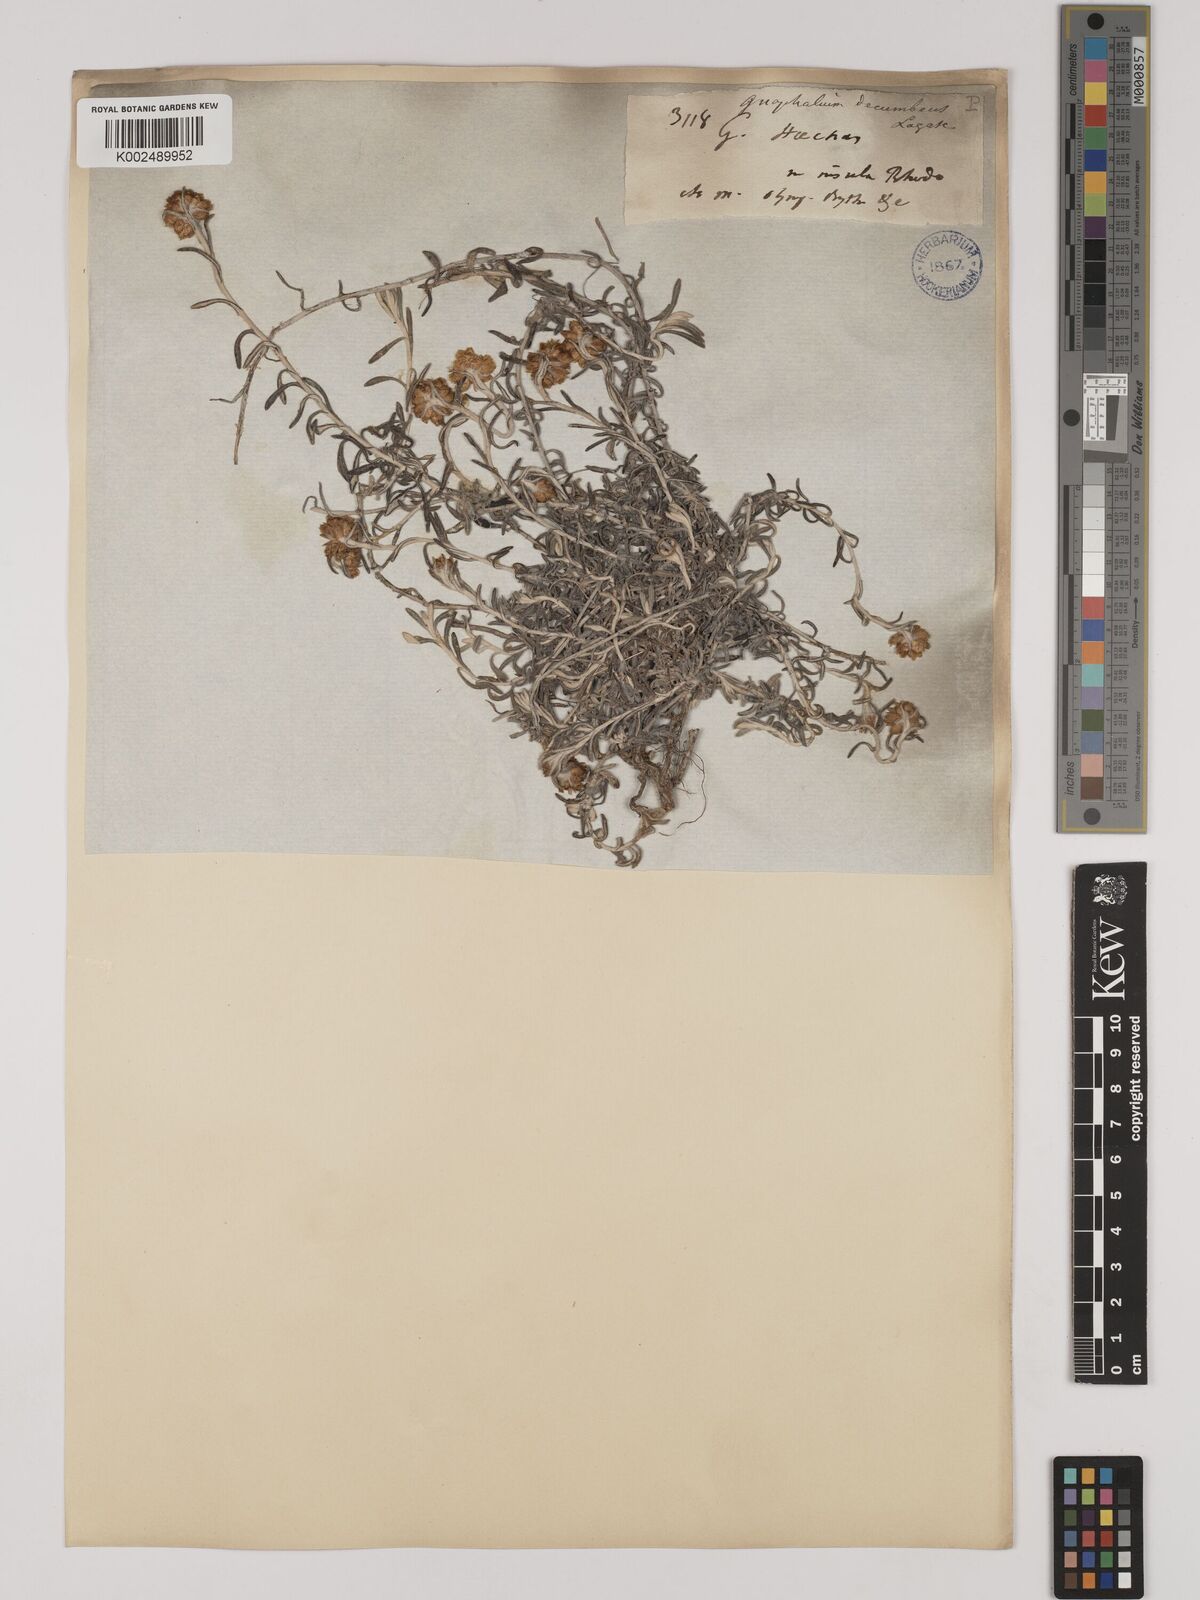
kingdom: Plantae
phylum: Tracheophyta
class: Magnoliopsida
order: Asterales
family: Asteraceae
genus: Helichrysum
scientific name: Helichrysum italicum
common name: Curryplant
